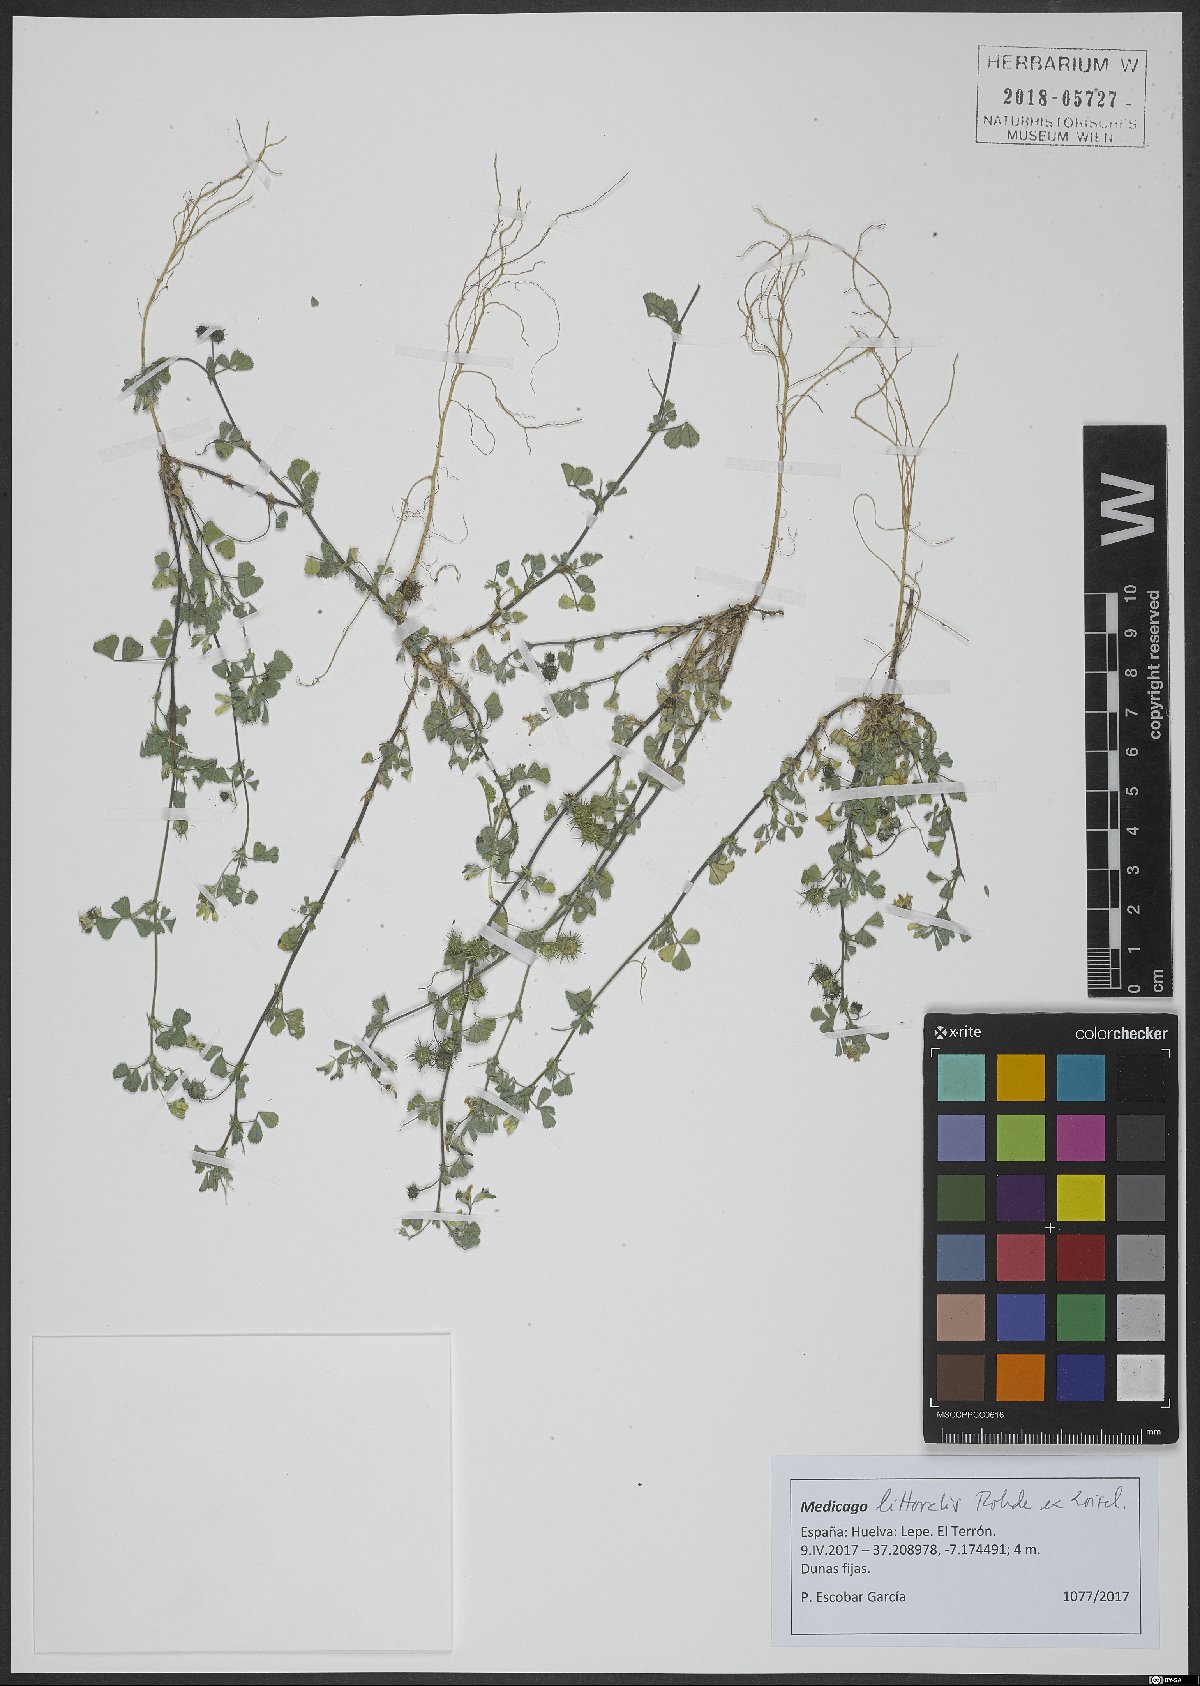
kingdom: Plantae
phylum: Tracheophyta
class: Magnoliopsida
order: Fabales
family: Fabaceae
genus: Medicago
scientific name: Medicago littoralis
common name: Shore medick
